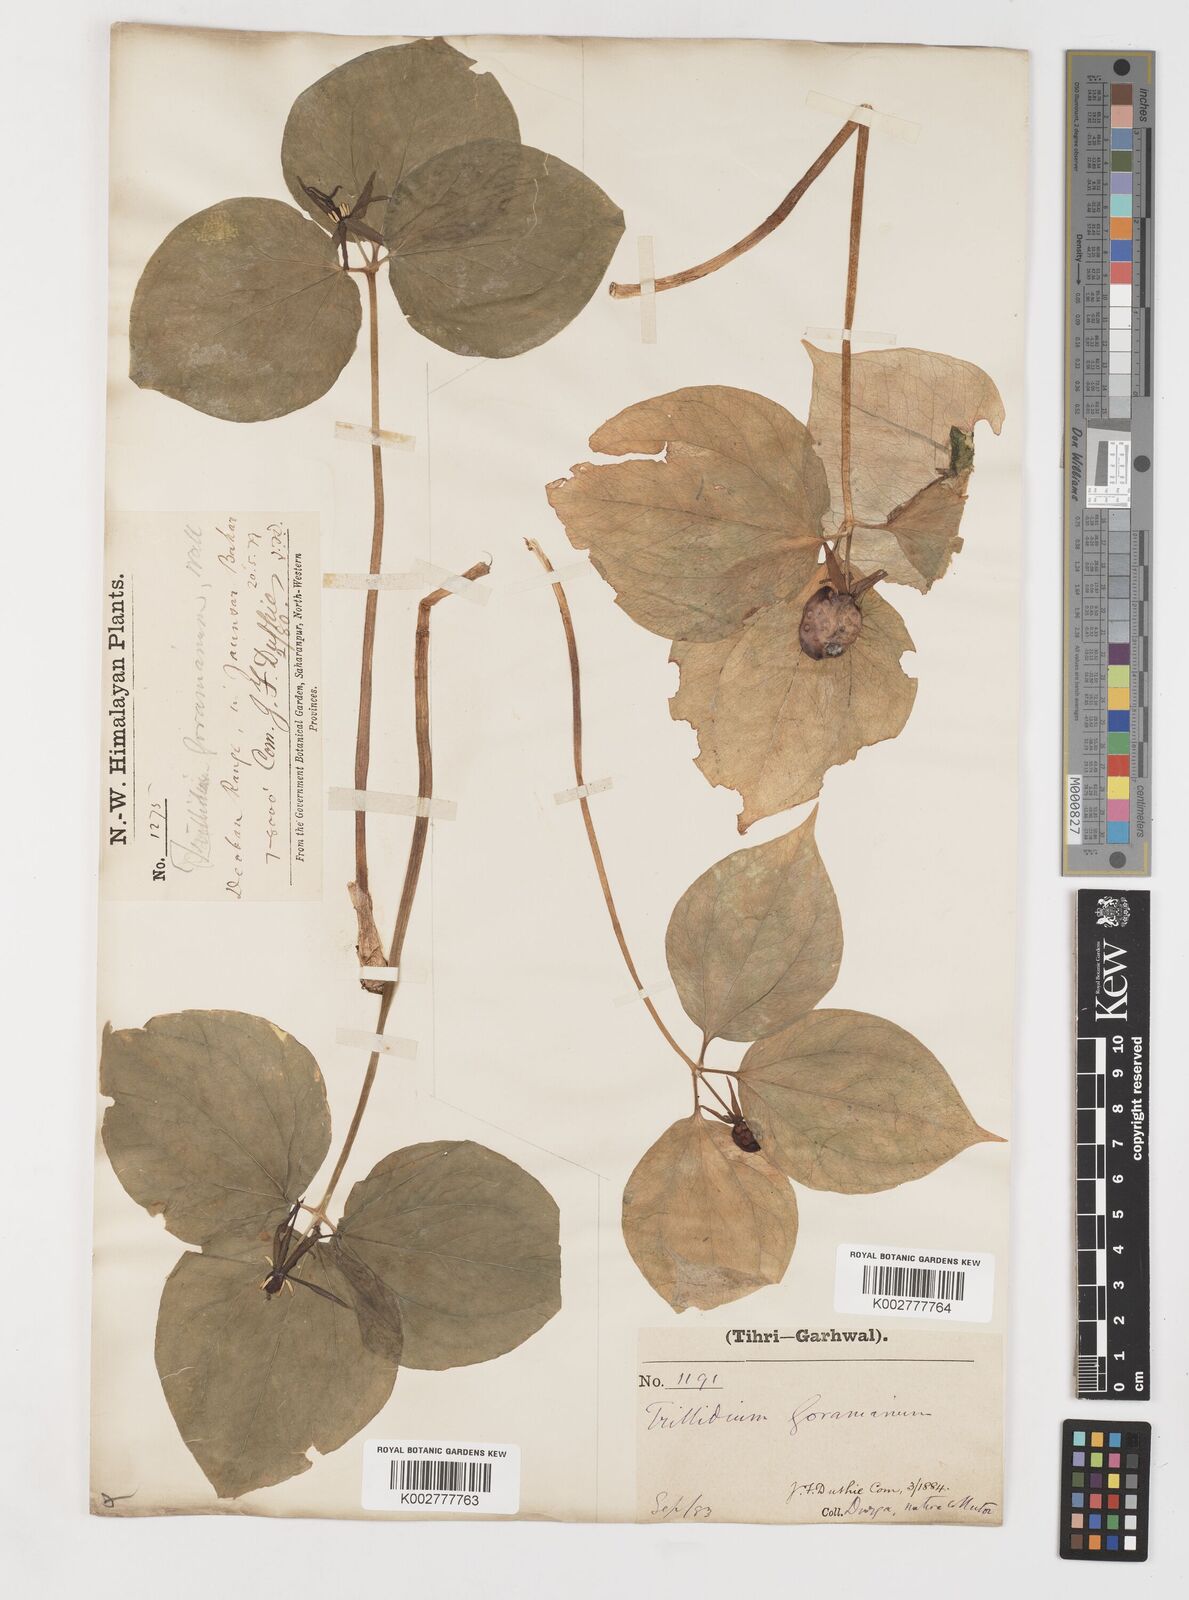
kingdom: Plantae
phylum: Tracheophyta
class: Liliopsida
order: Liliales
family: Melanthiaceae
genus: Trillium
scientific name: Trillium govanianum
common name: Himalayan trillium
